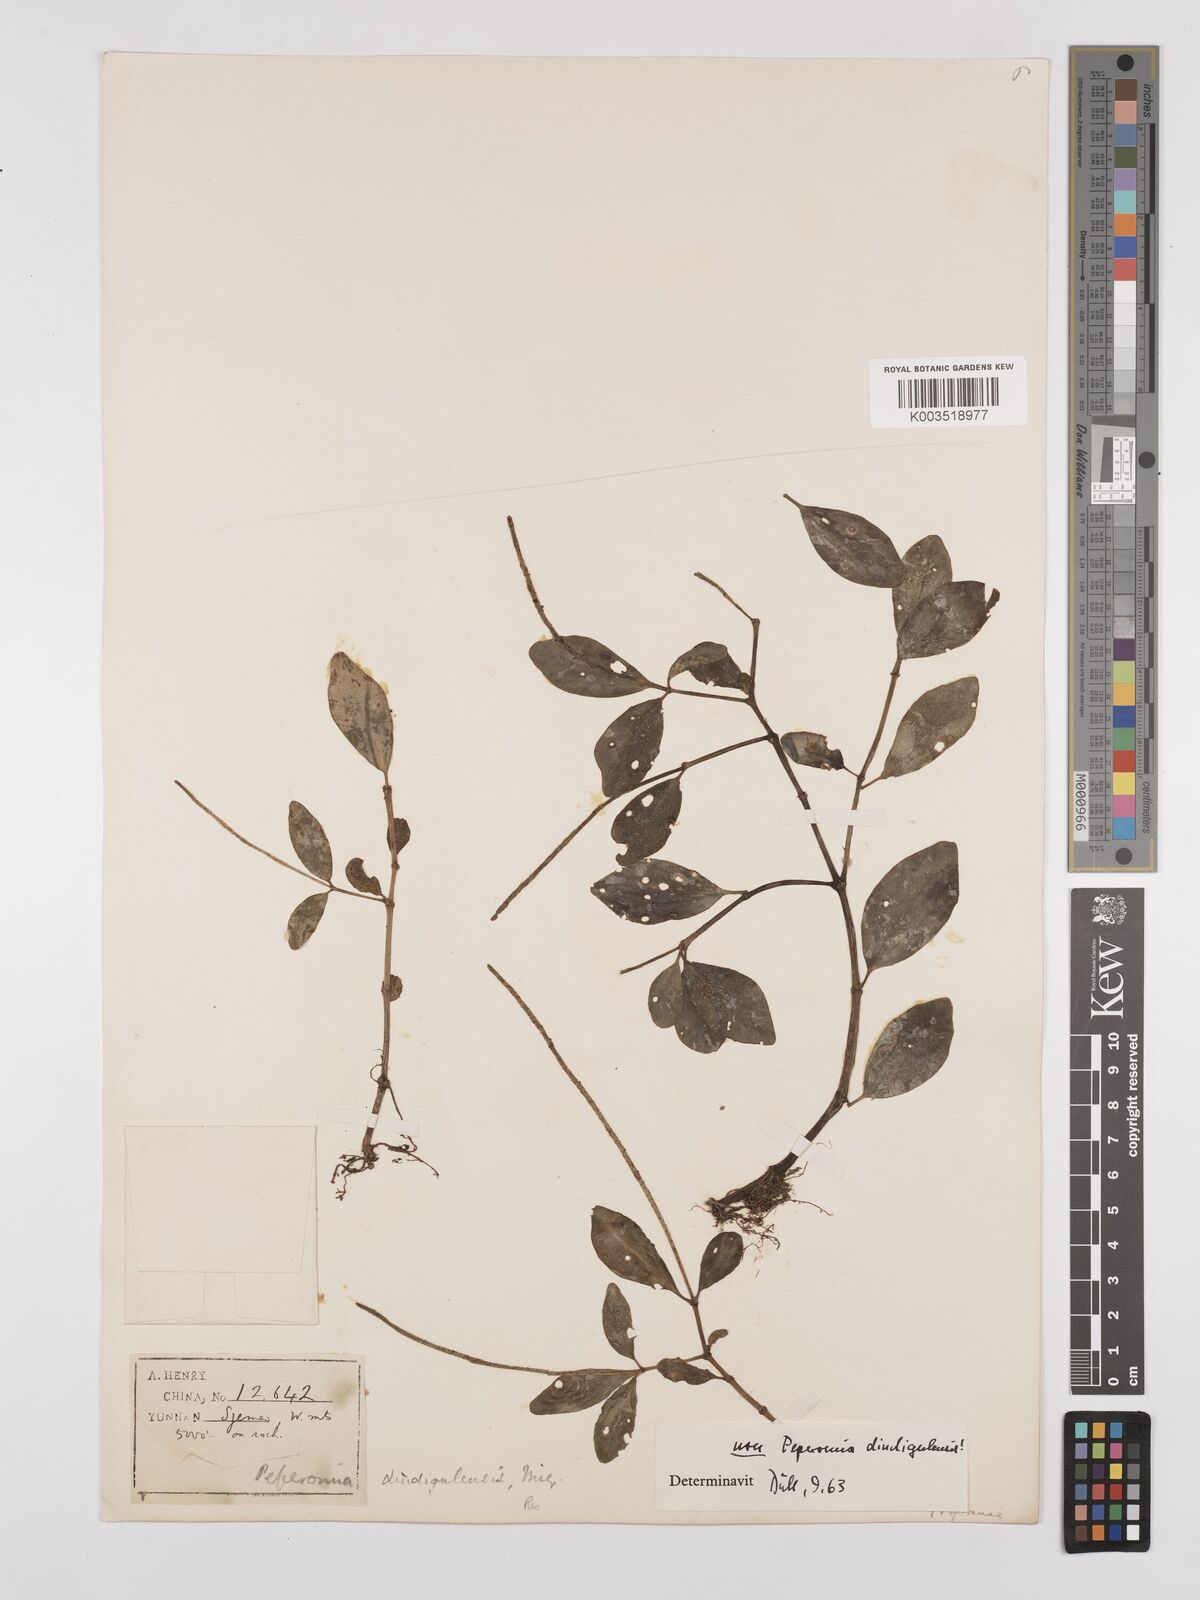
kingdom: Plantae
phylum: Tracheophyta
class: Magnoliopsida
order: Piperales
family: Piperaceae
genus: Peperomia
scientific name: Peperomia leptostachya
